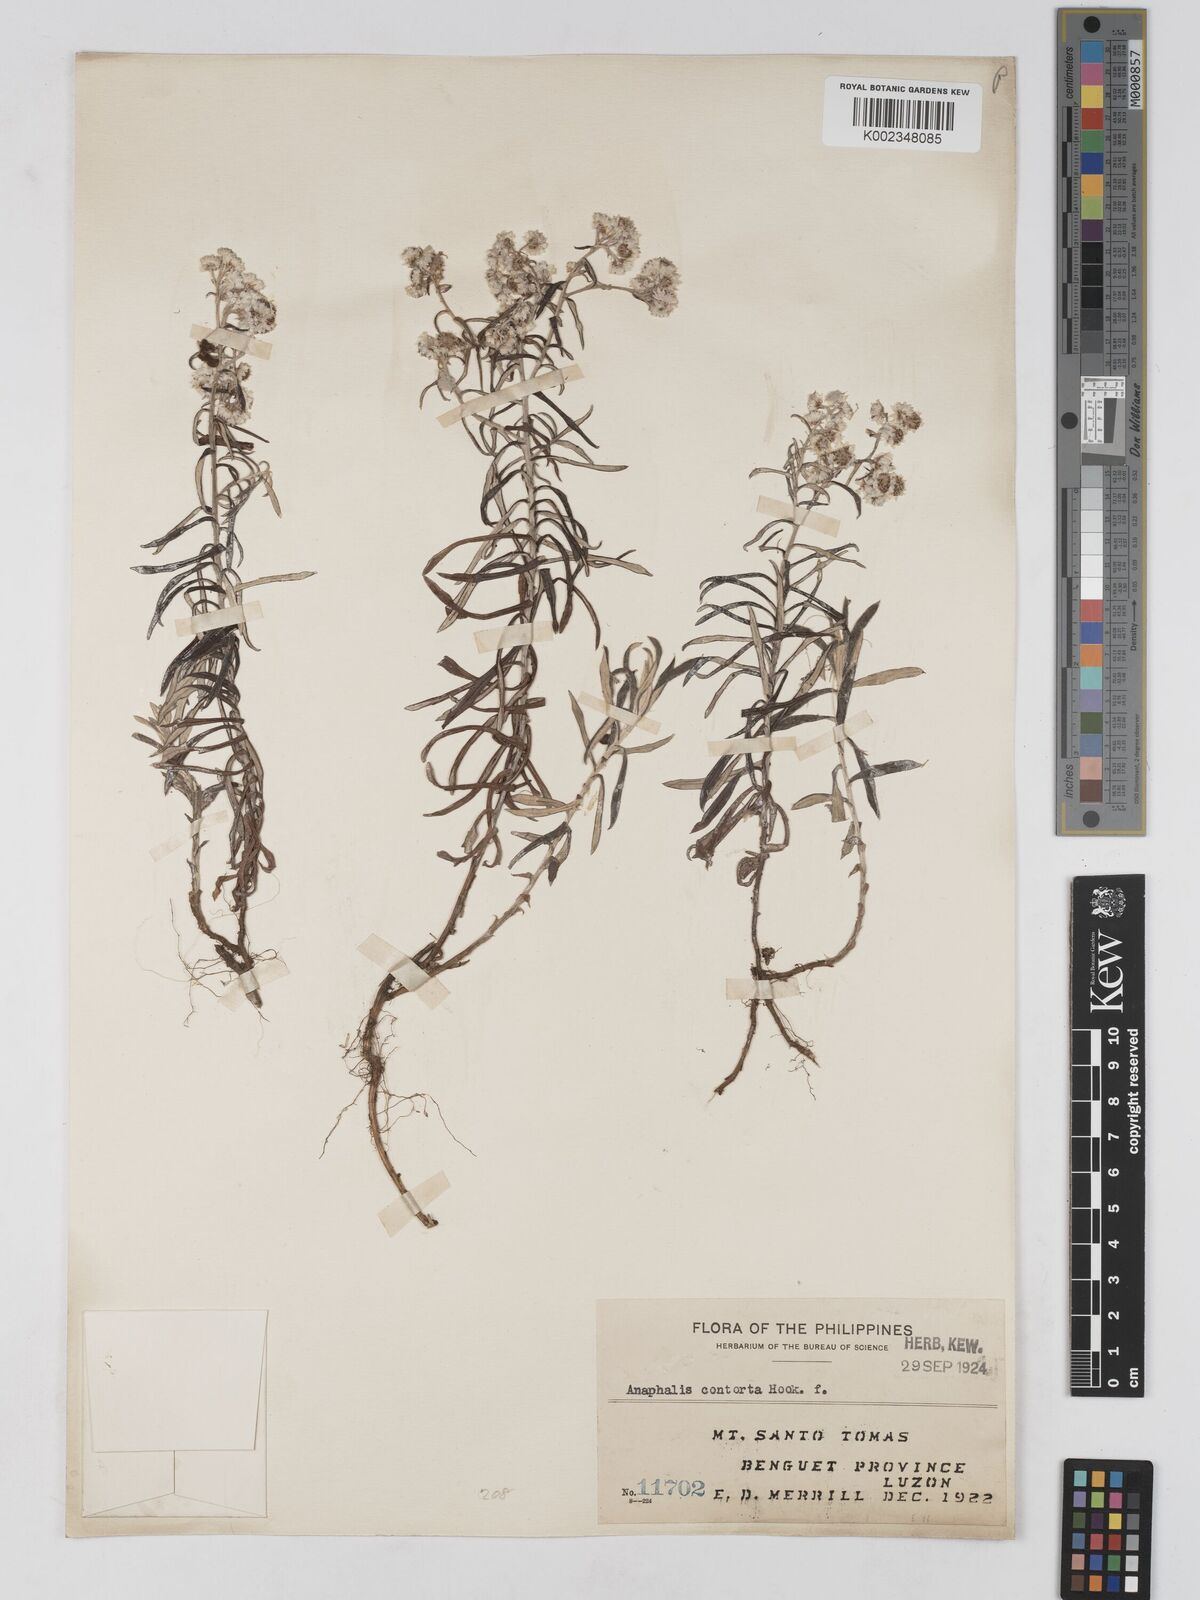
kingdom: Plantae
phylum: Tracheophyta
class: Magnoliopsida
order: Asterales
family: Asteraceae
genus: Anaphalis
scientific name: Anaphalis contorta
